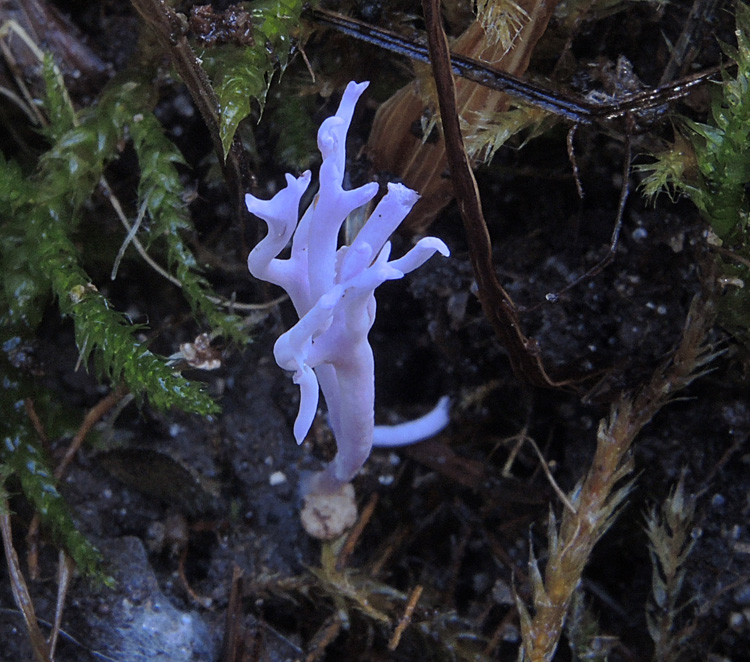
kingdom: Fungi
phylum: Basidiomycota
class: Agaricomycetes
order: Agaricales
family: Clavariaceae
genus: Ramariopsis
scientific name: Ramariopsis pulchella
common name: violet køllesvamp
